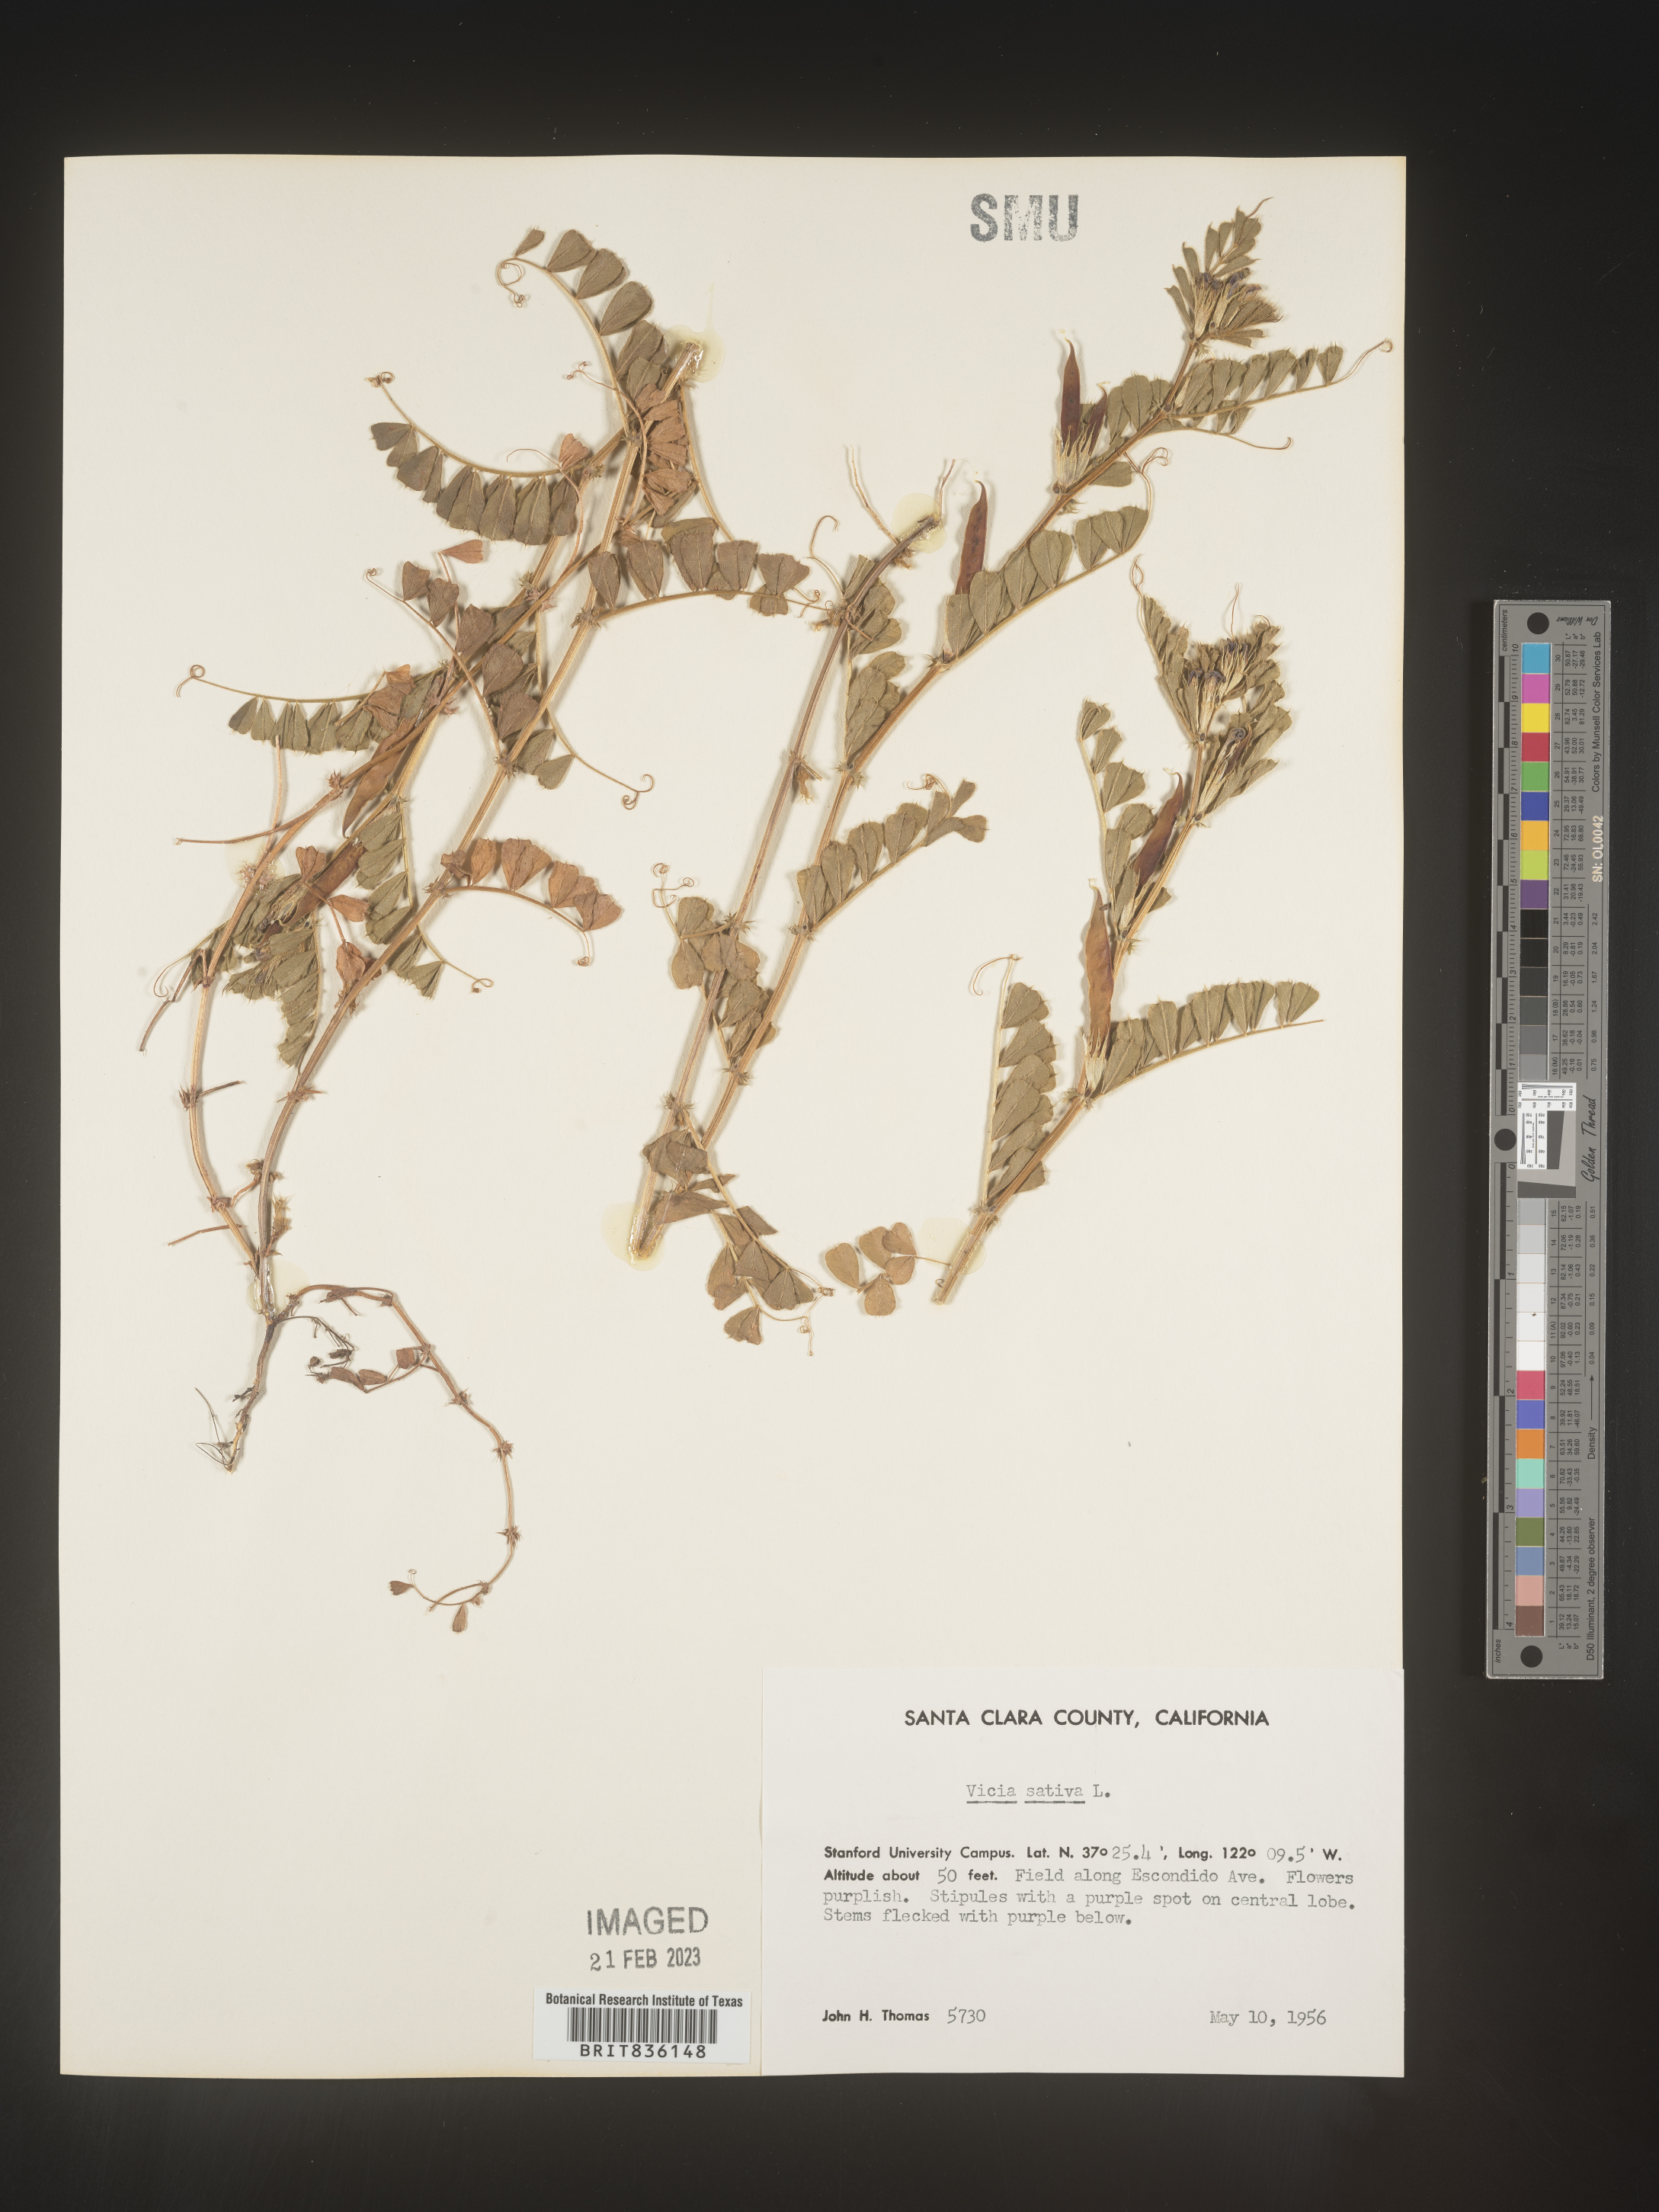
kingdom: Plantae
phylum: Tracheophyta
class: Magnoliopsida
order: Fabales
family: Fabaceae
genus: Vicia
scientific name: Vicia sativa
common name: Garden vetch
